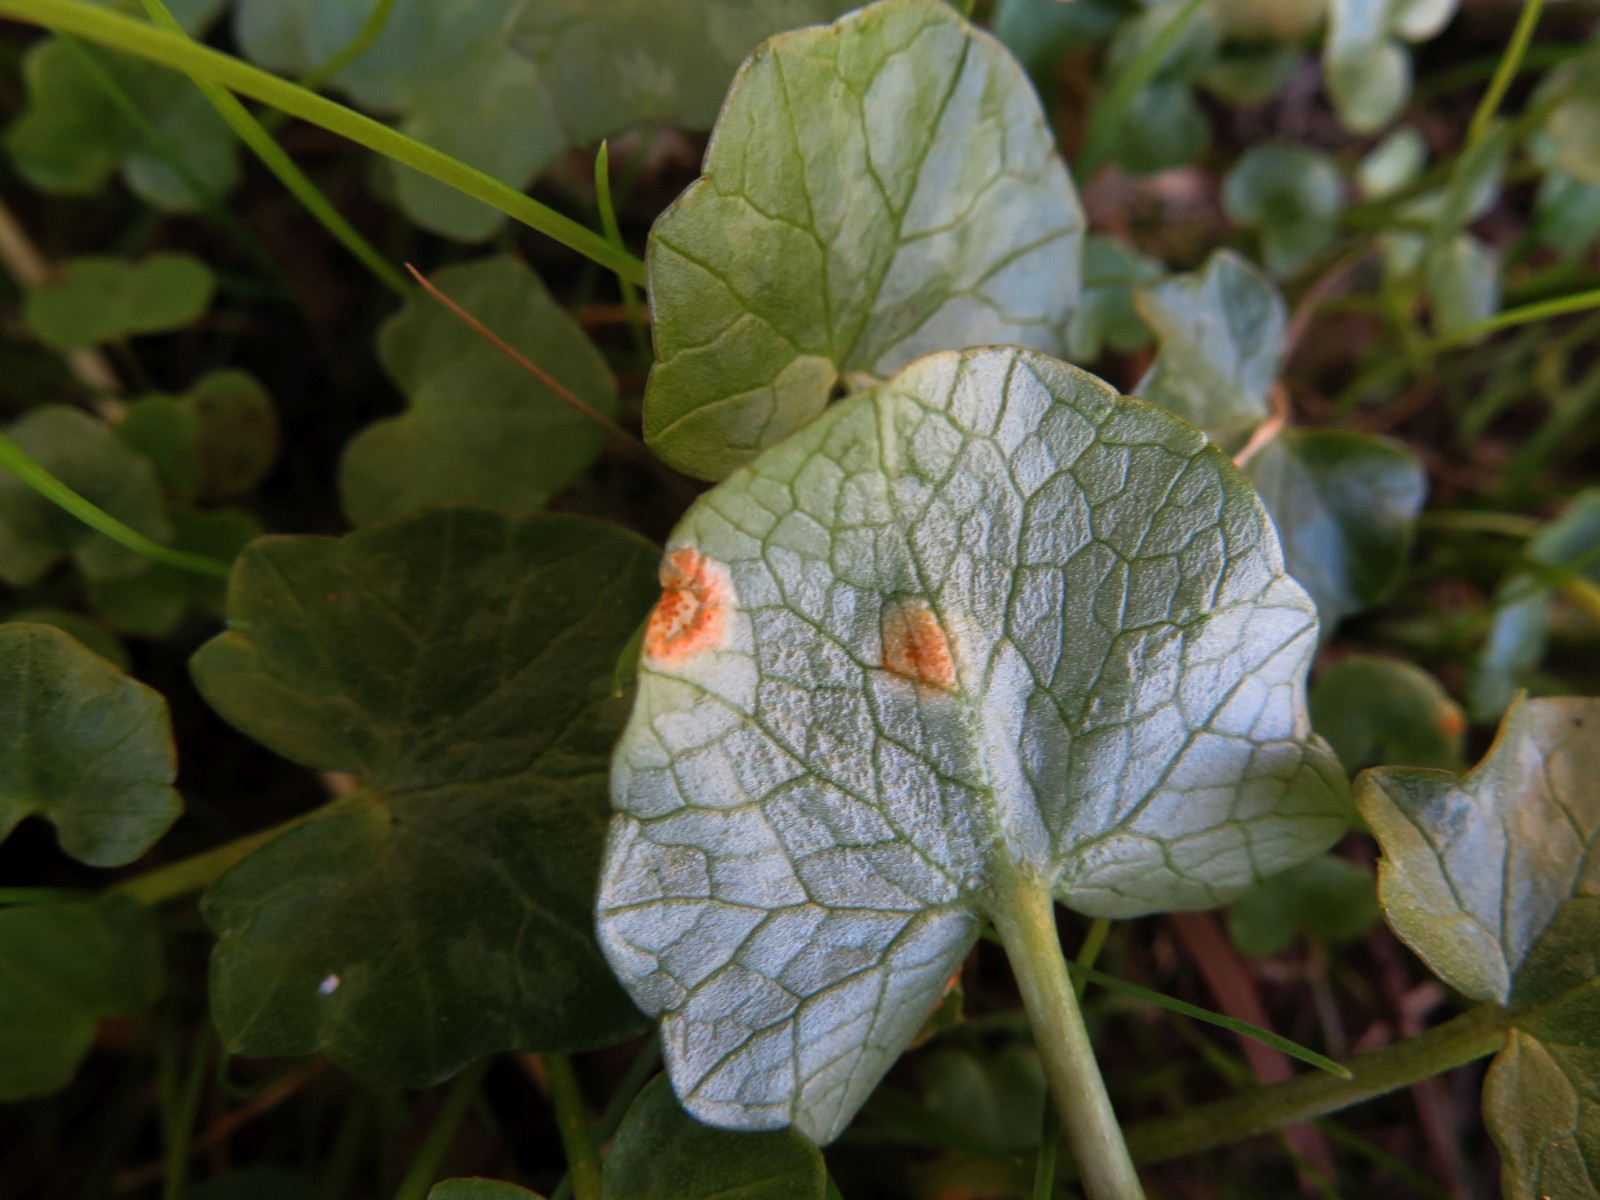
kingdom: Fungi
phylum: Basidiomycota
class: Pucciniomycetes
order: Pucciniales
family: Pucciniaceae
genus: Uromyces
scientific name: Uromyces dactylidis
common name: ranunkel-encellerust
